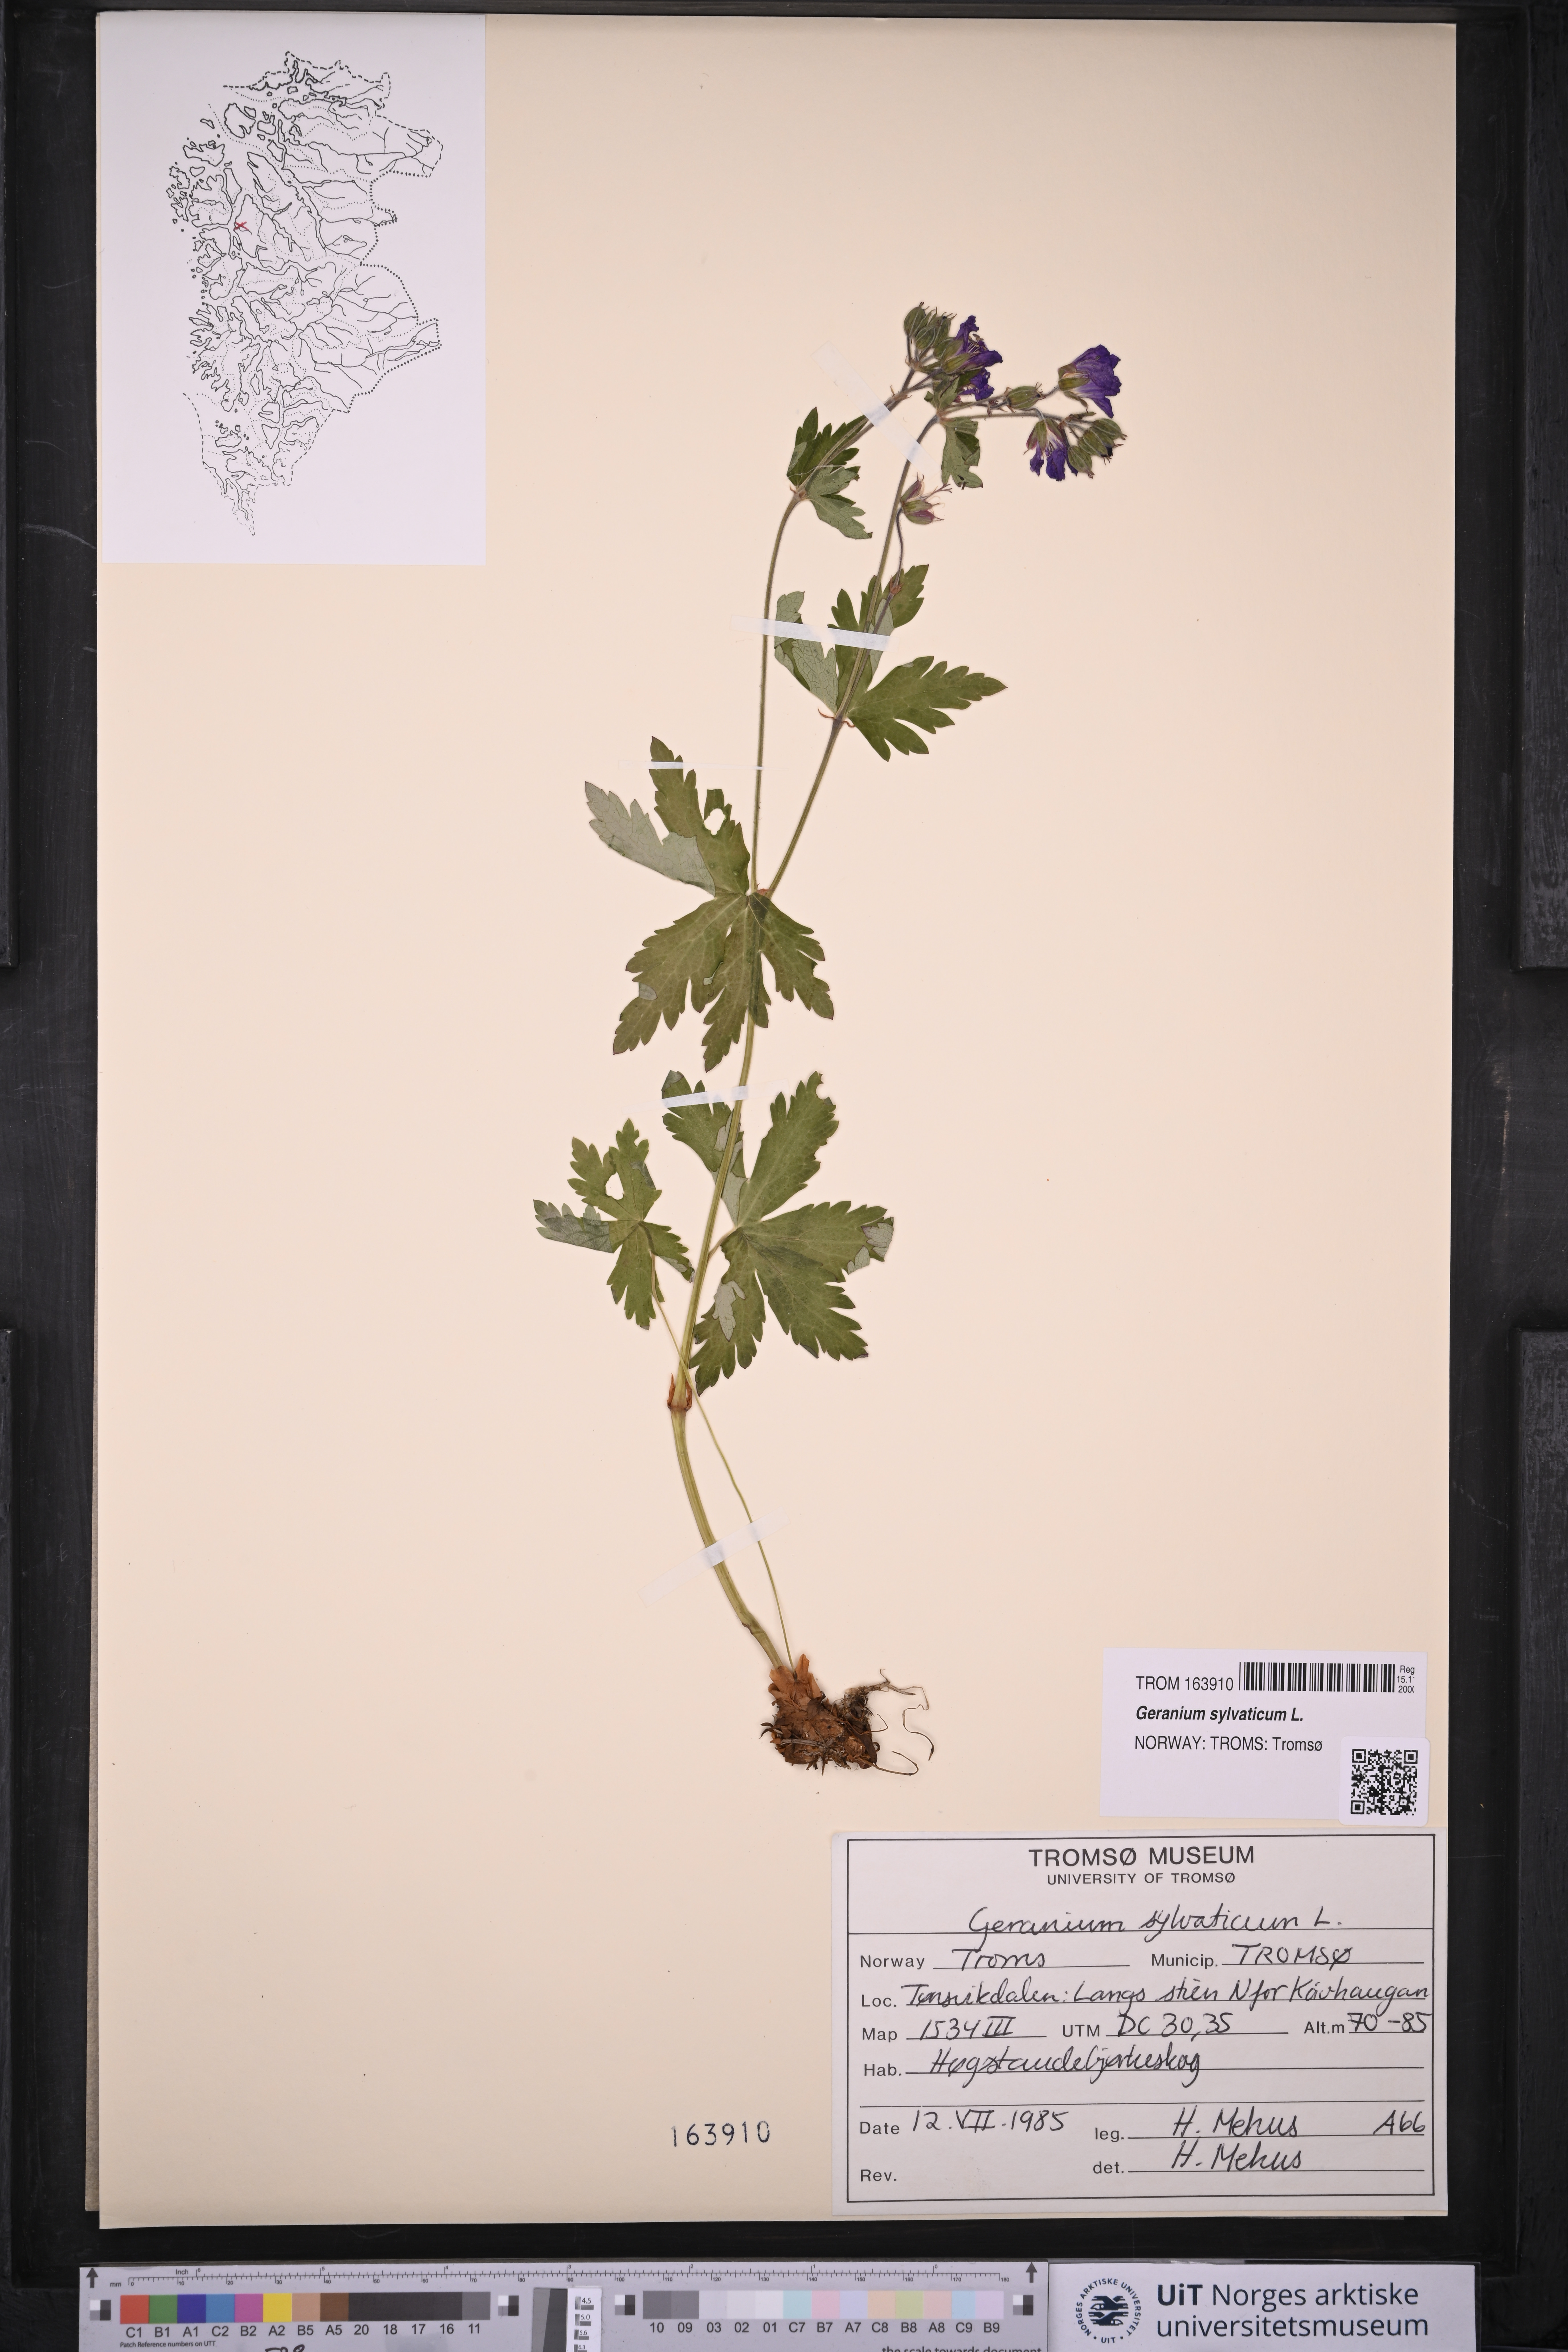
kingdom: Plantae
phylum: Tracheophyta
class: Magnoliopsida
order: Geraniales
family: Geraniaceae
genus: Geranium
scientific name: Geranium sylvaticum
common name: Wood crane's-bill
